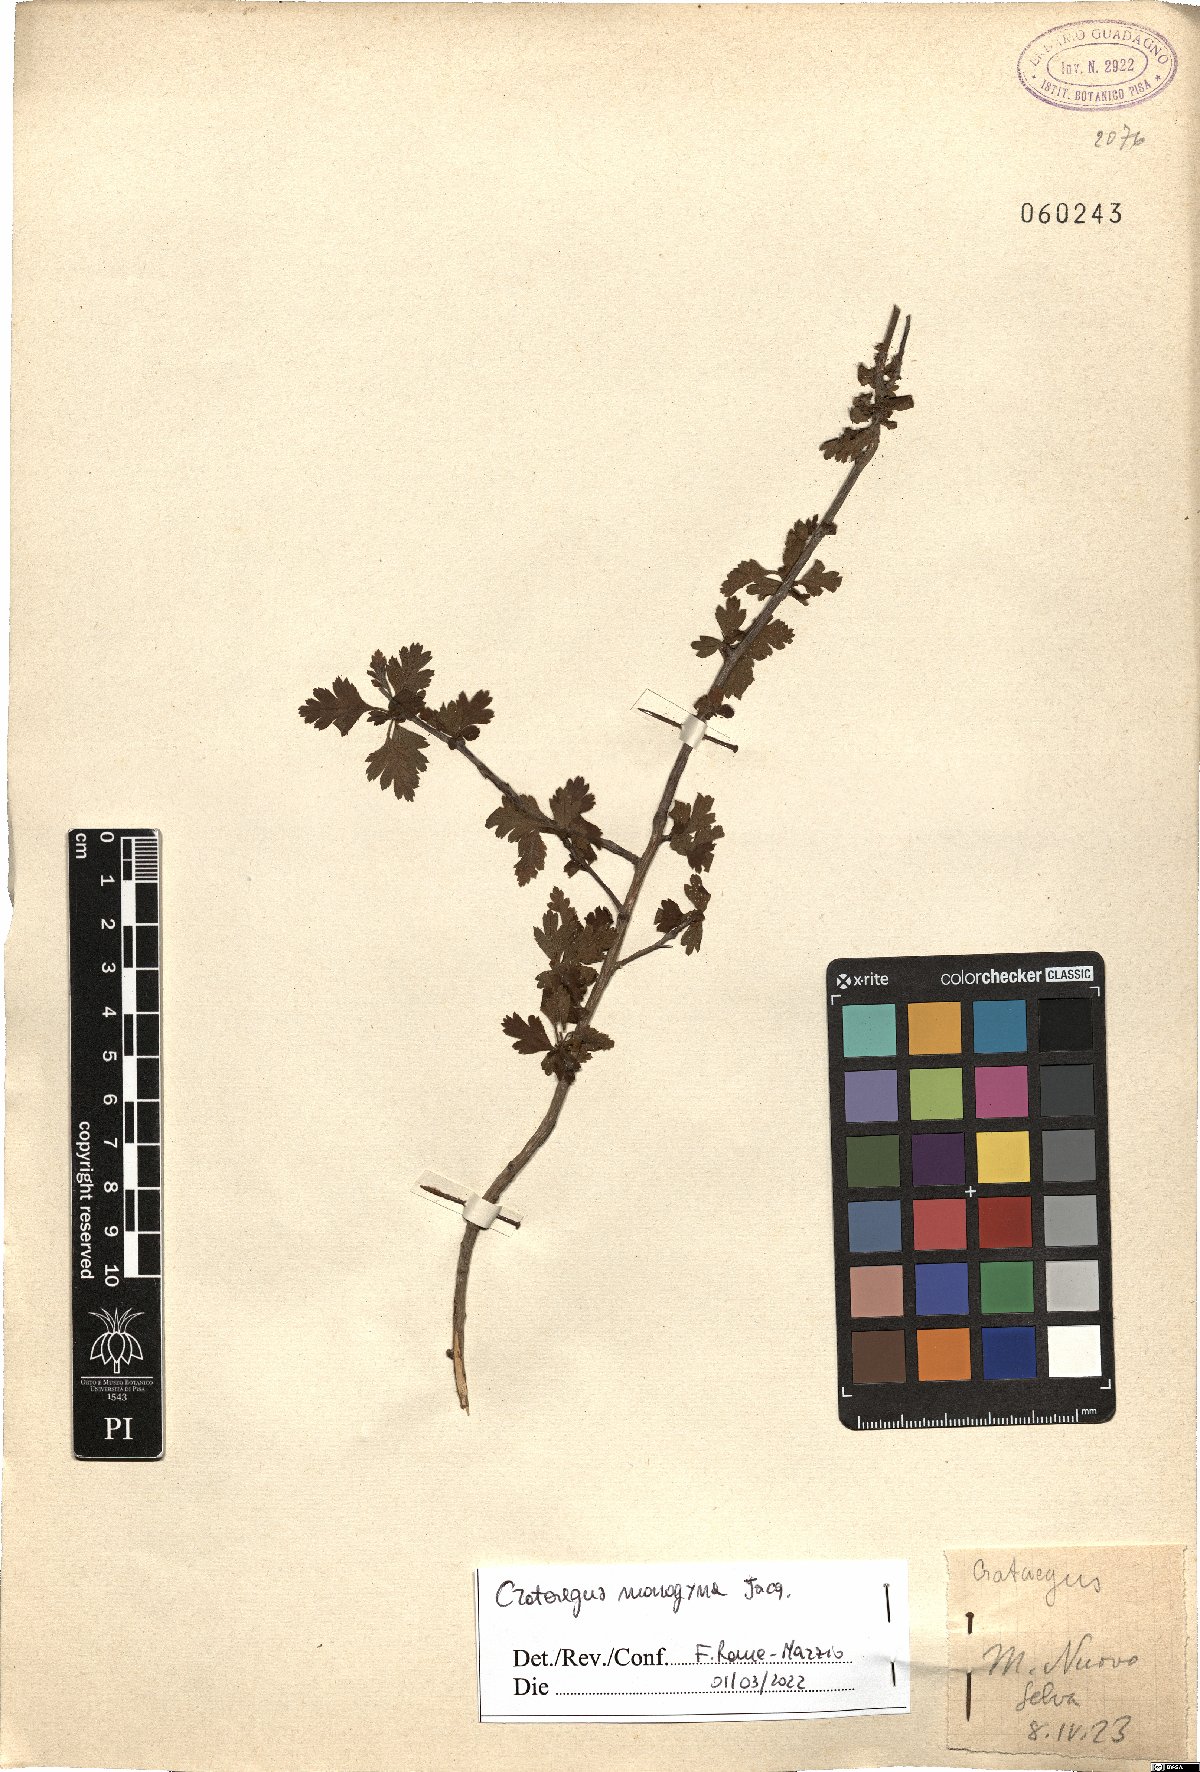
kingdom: Plantae
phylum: Tracheophyta
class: Magnoliopsida
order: Rosales
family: Rosaceae
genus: Crataegus
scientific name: Crataegus monogyna
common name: Hawthorn
